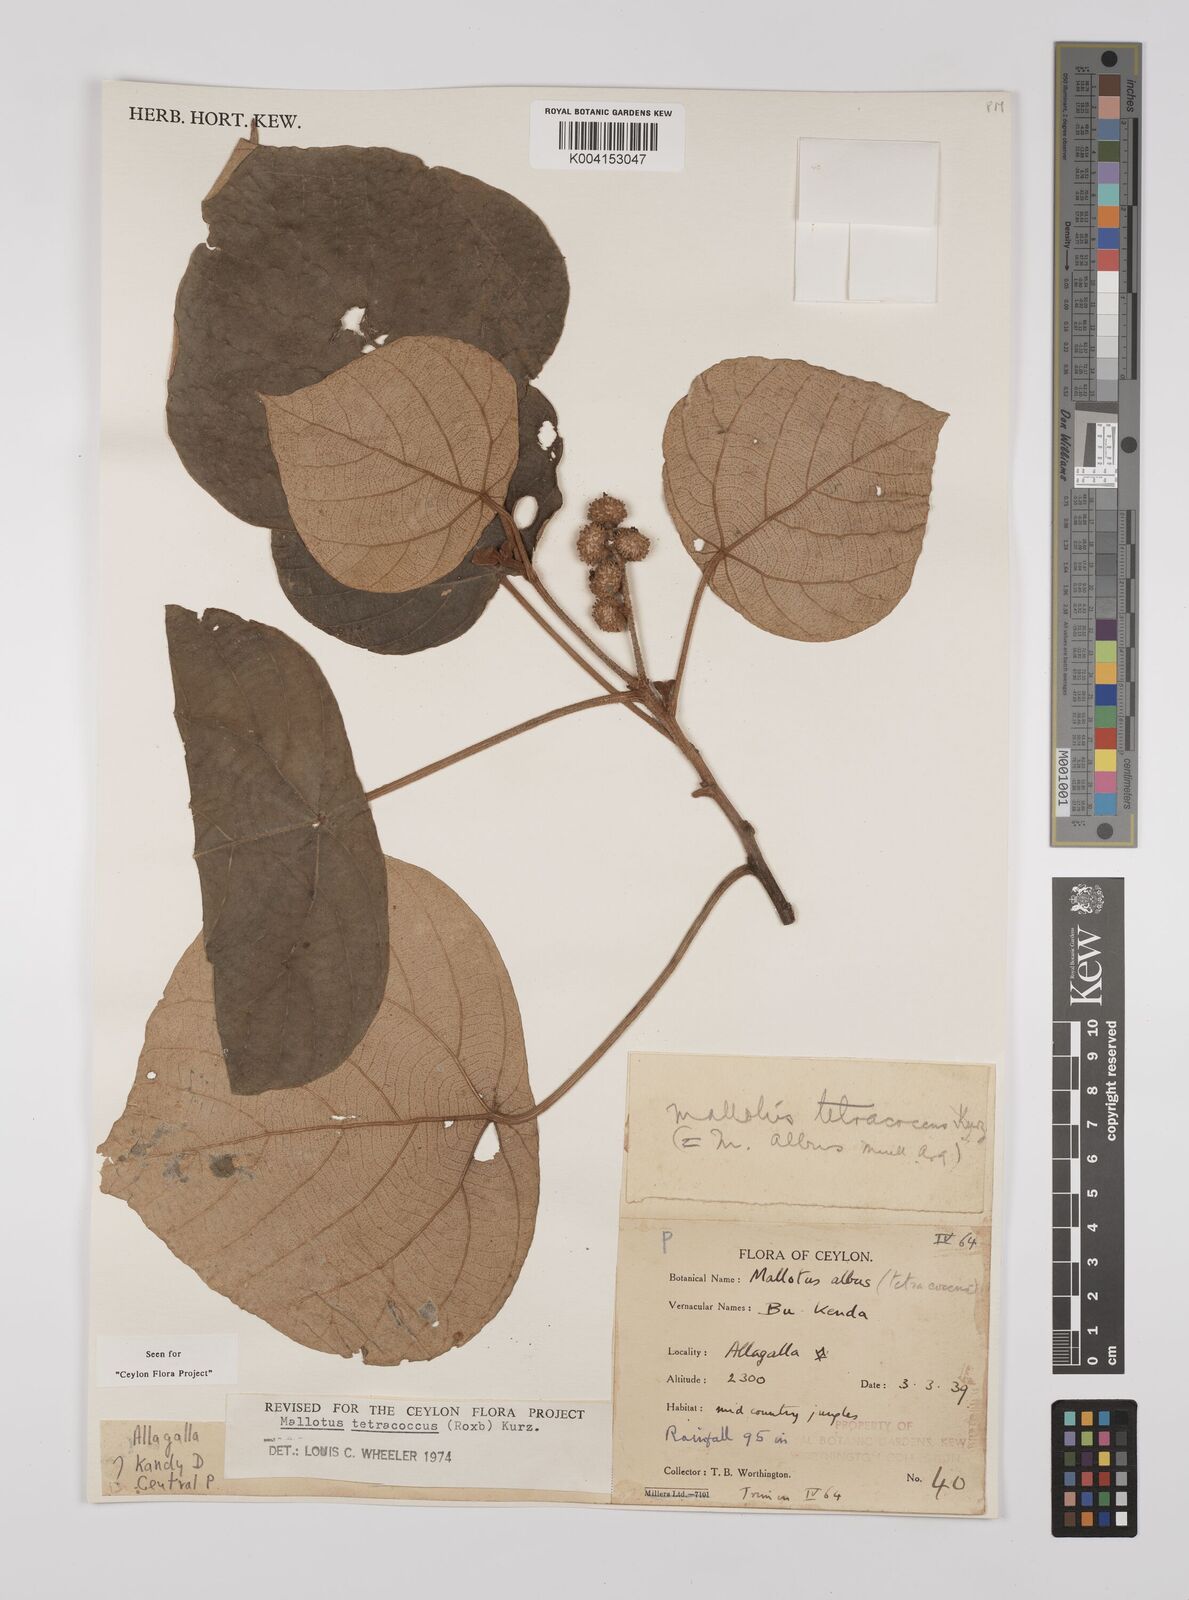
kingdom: Plantae
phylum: Tracheophyta
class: Magnoliopsida
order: Malpighiales
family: Euphorbiaceae
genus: Mallotus
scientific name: Mallotus tetracoccus
